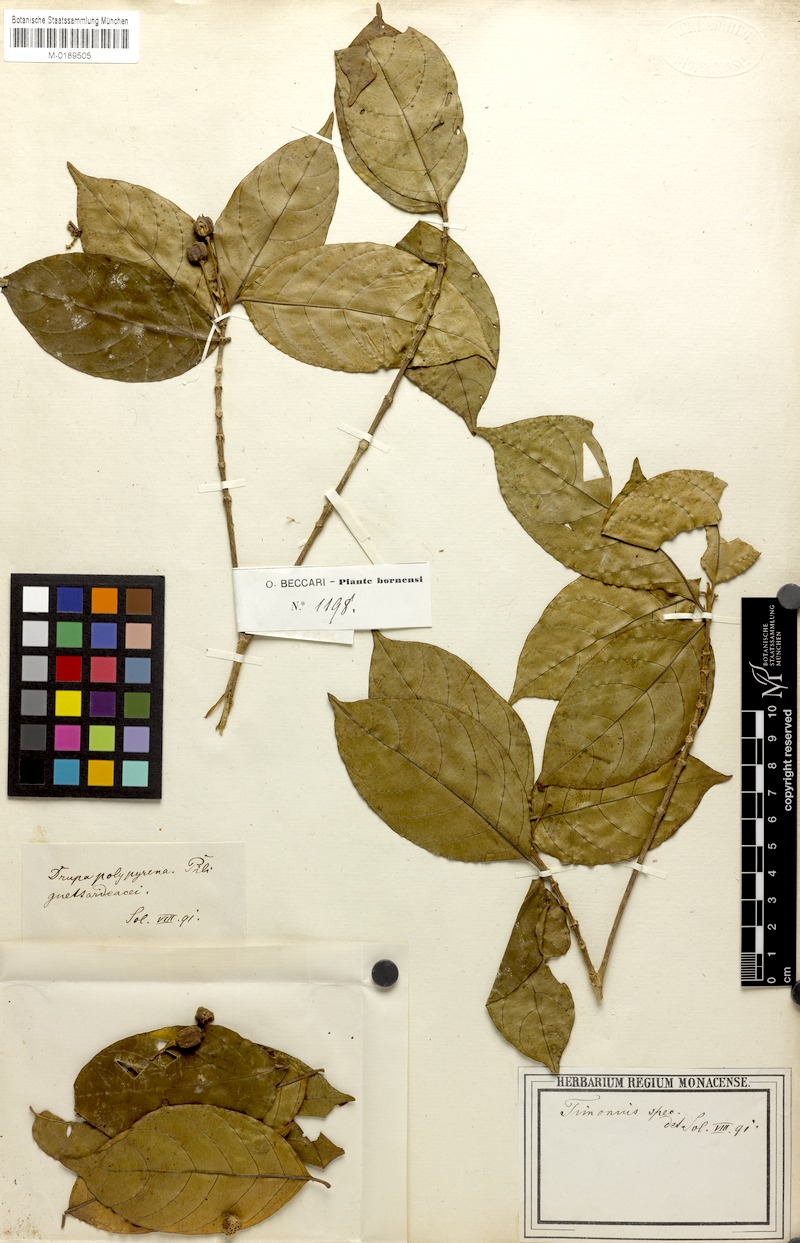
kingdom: Plantae
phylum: Tracheophyta
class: Magnoliopsida
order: Gentianales
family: Rubiaceae
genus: Timonius
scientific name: Timonius
